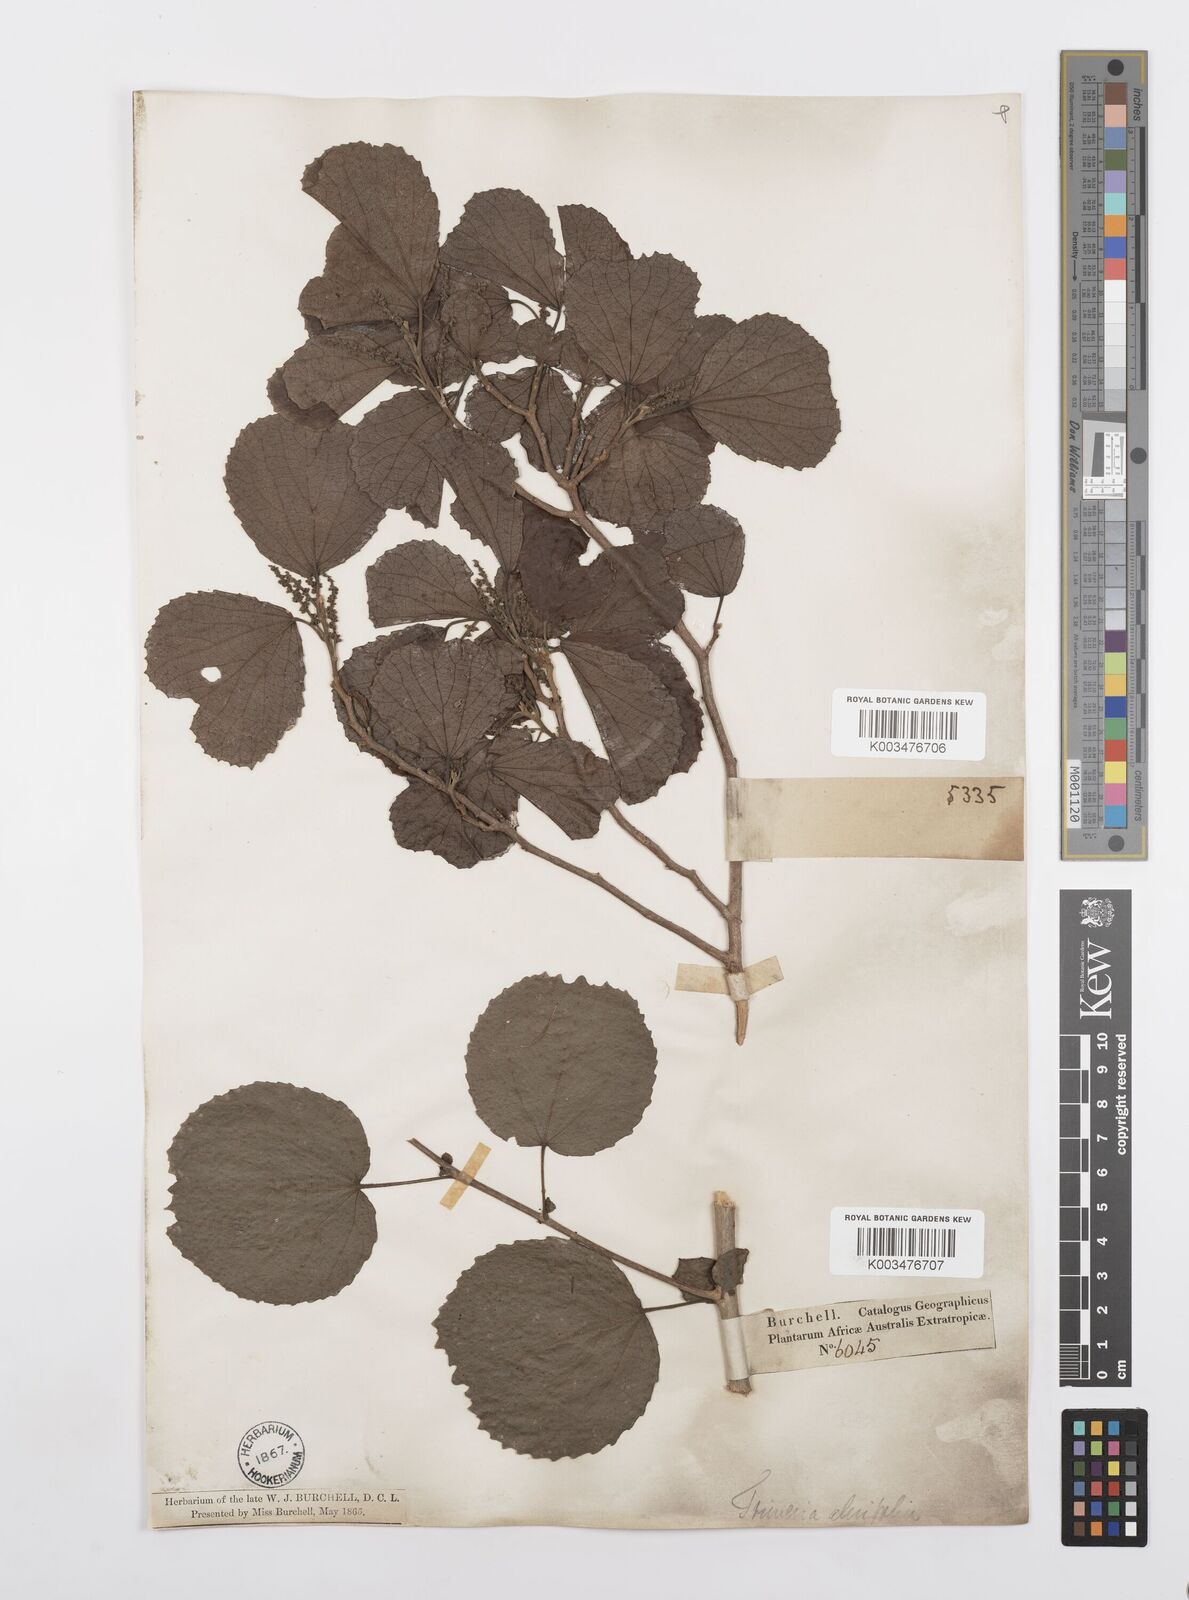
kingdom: Plantae
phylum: Tracheophyta
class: Magnoliopsida
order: Malpighiales
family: Salicaceae
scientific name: Salicaceae
